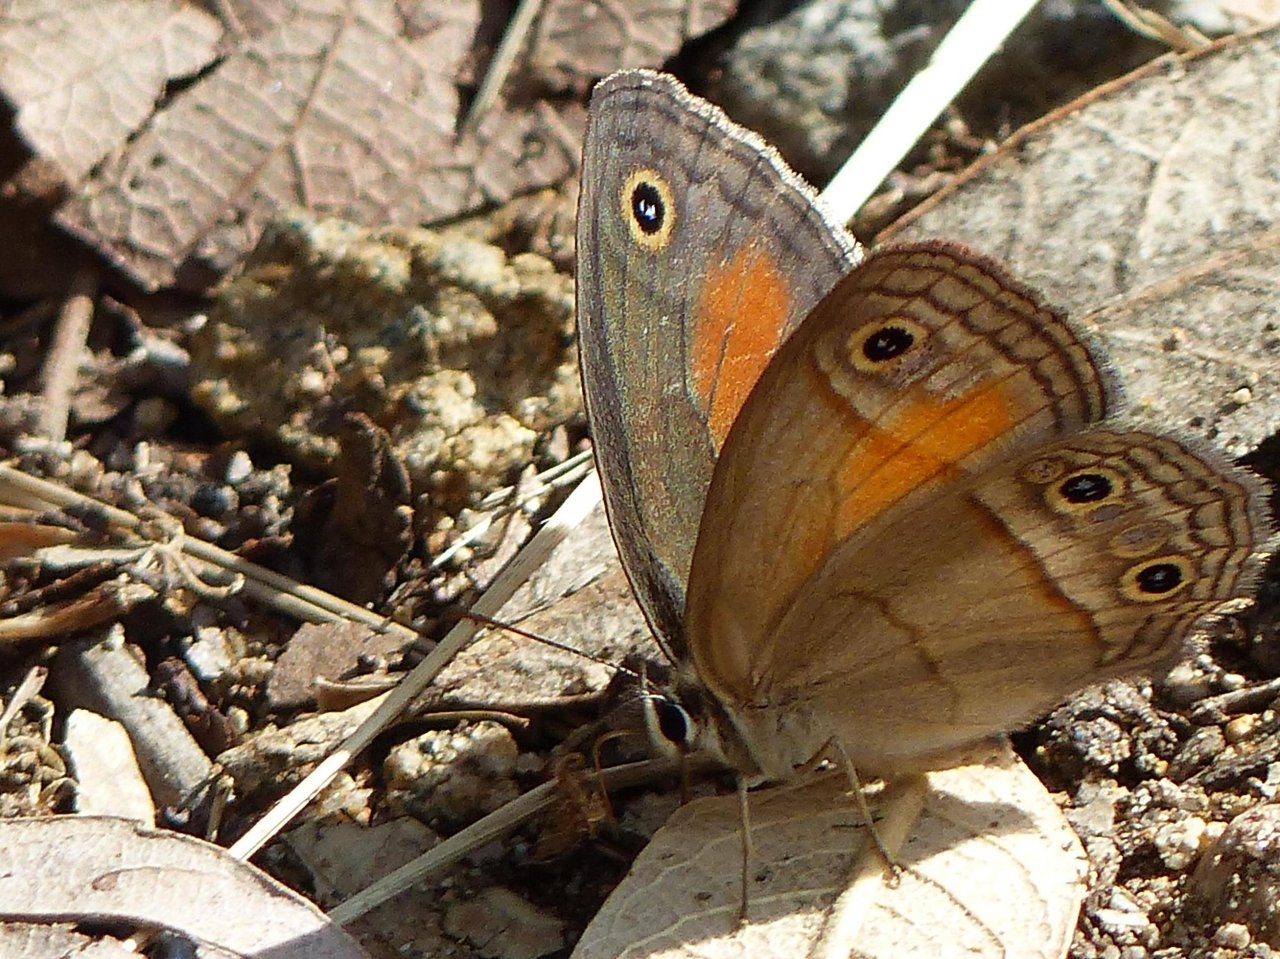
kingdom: Animalia
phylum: Arthropoda
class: Insecta
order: Lepidoptera
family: Nymphalidae
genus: Euptychia
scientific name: Euptychia rubricata
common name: Red Satyr
